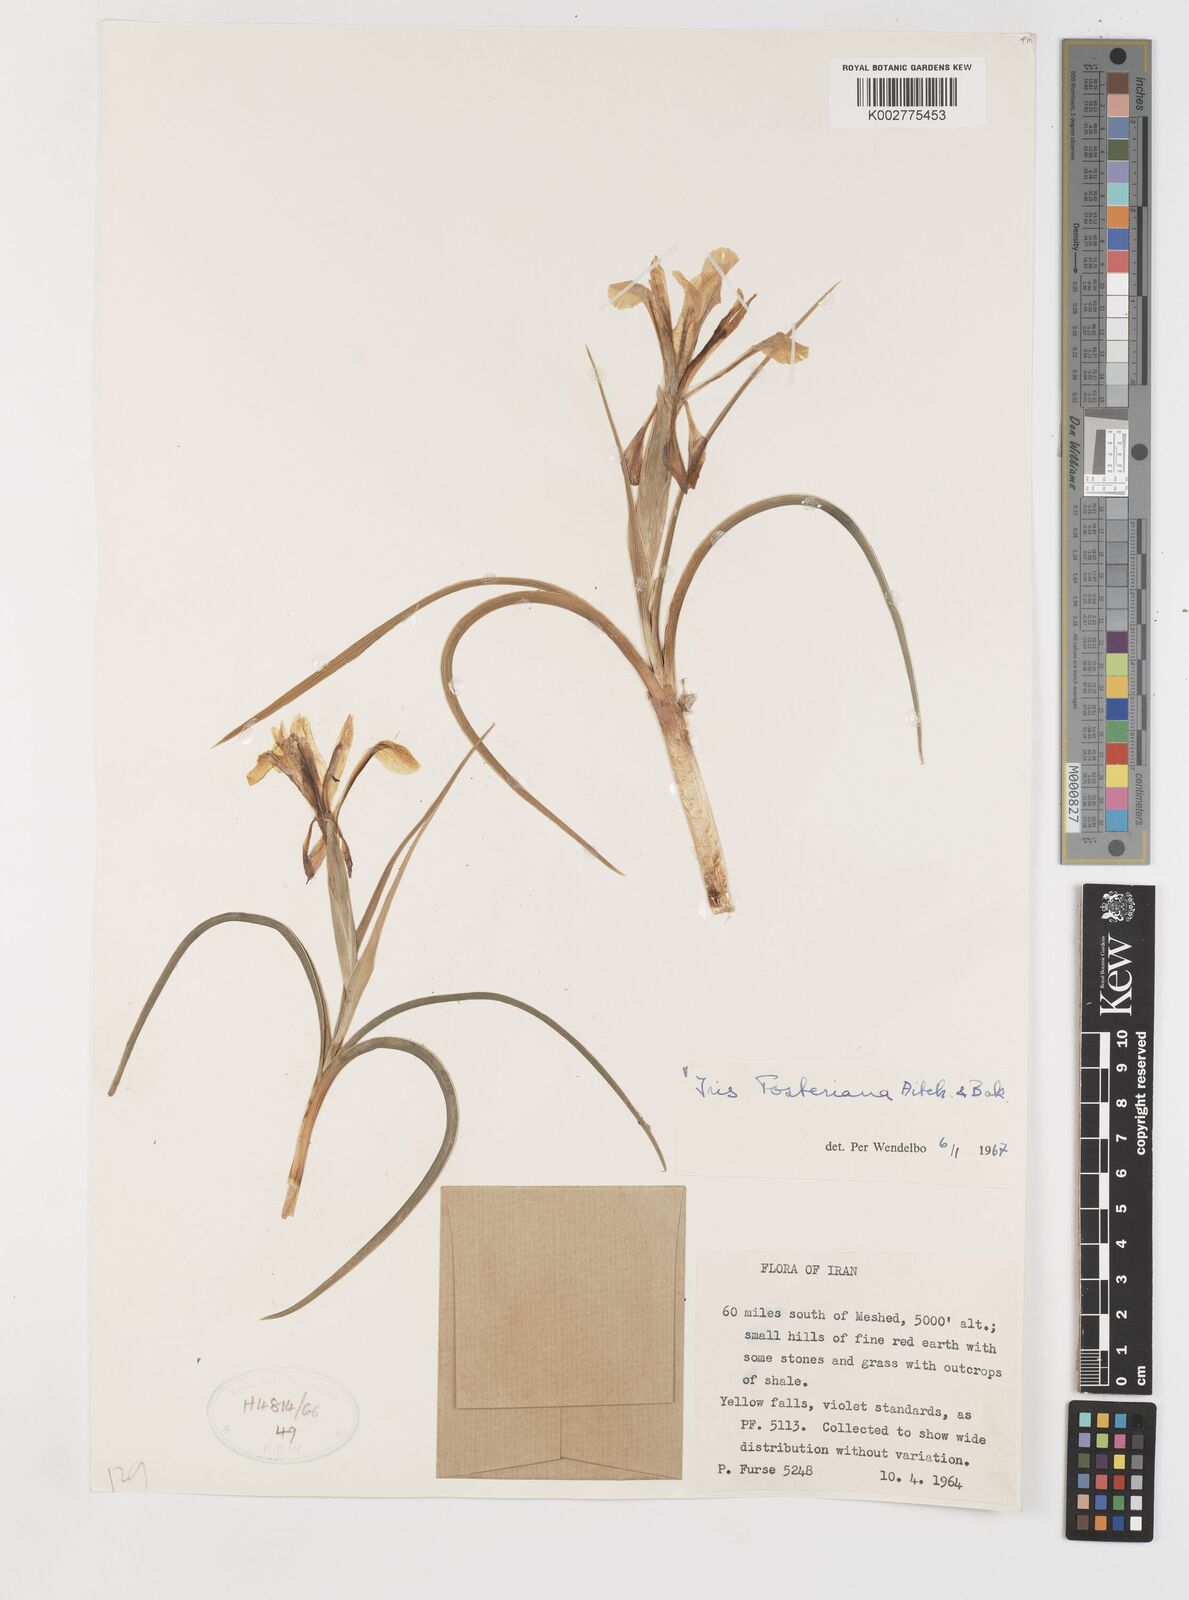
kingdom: Plantae
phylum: Tracheophyta
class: Liliopsida
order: Asparagales
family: Iridaceae
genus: Iris
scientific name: Iris fosteriana
